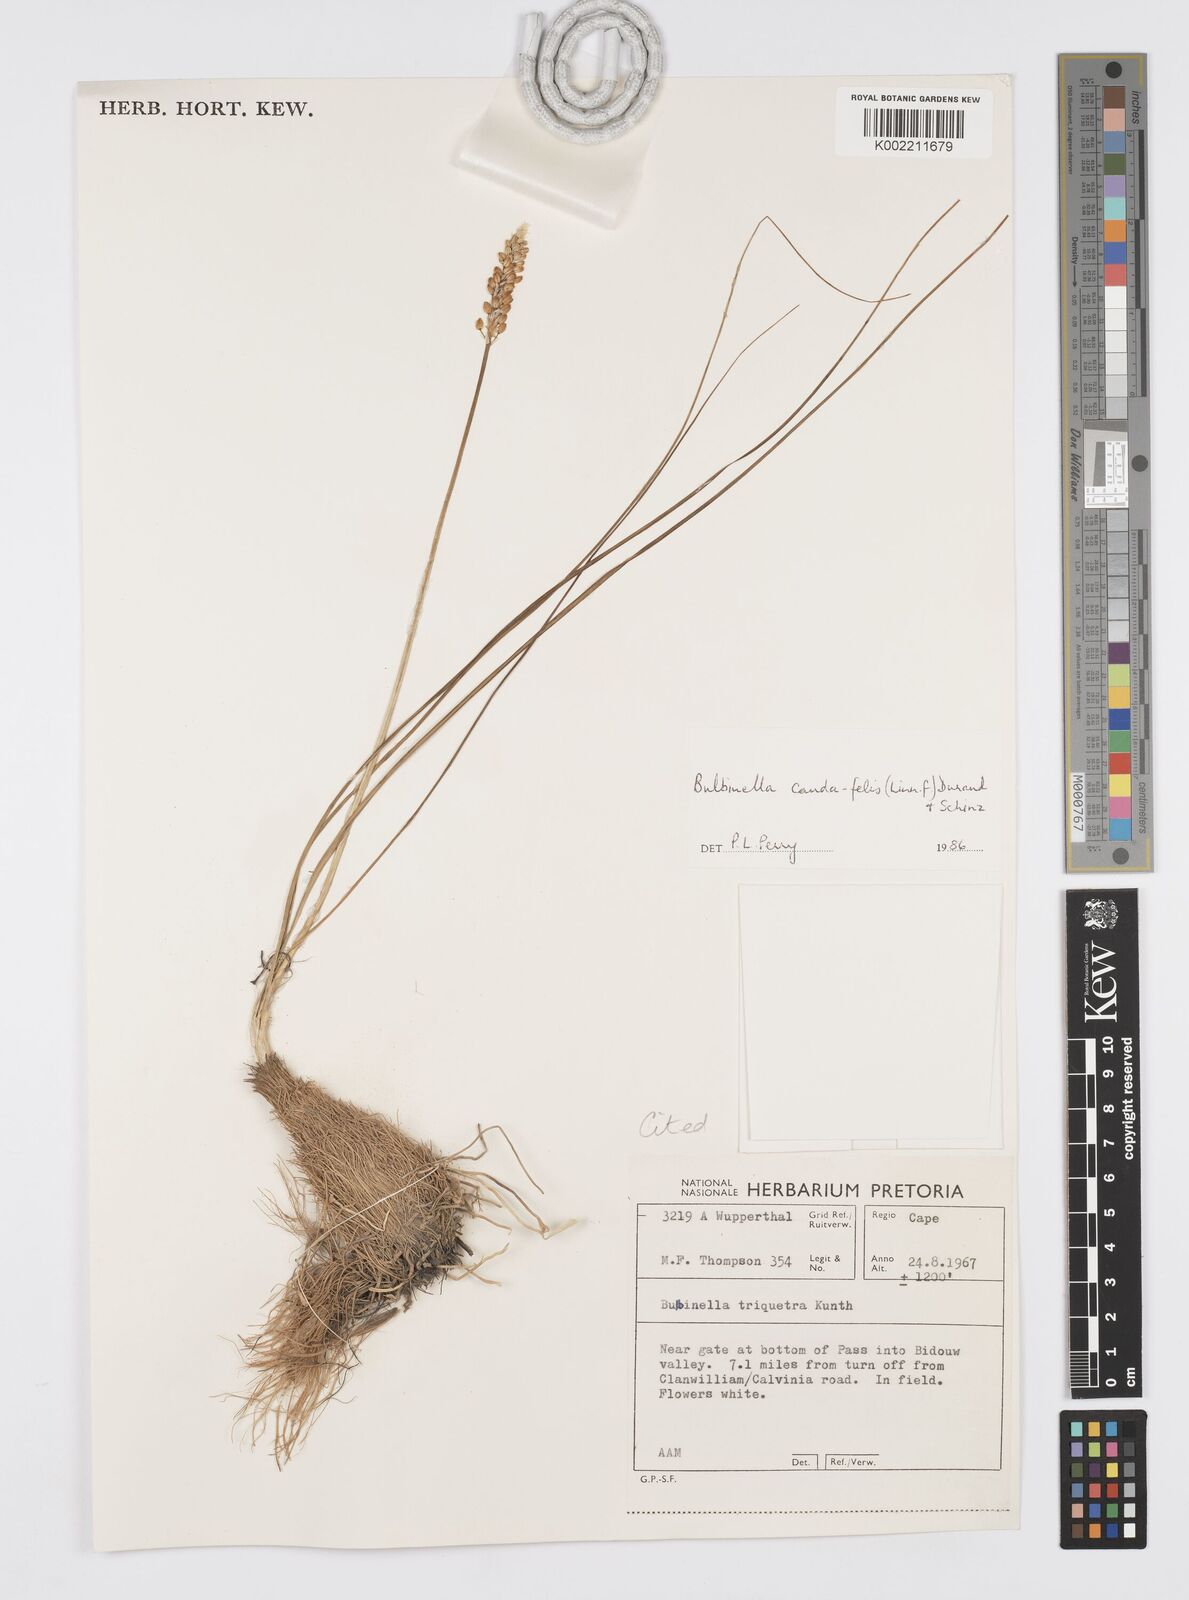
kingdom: Plantae
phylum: Tracheophyta
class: Liliopsida
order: Asparagales
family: Asphodelaceae
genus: Bulbinella
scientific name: Bulbinella cauda-felis
